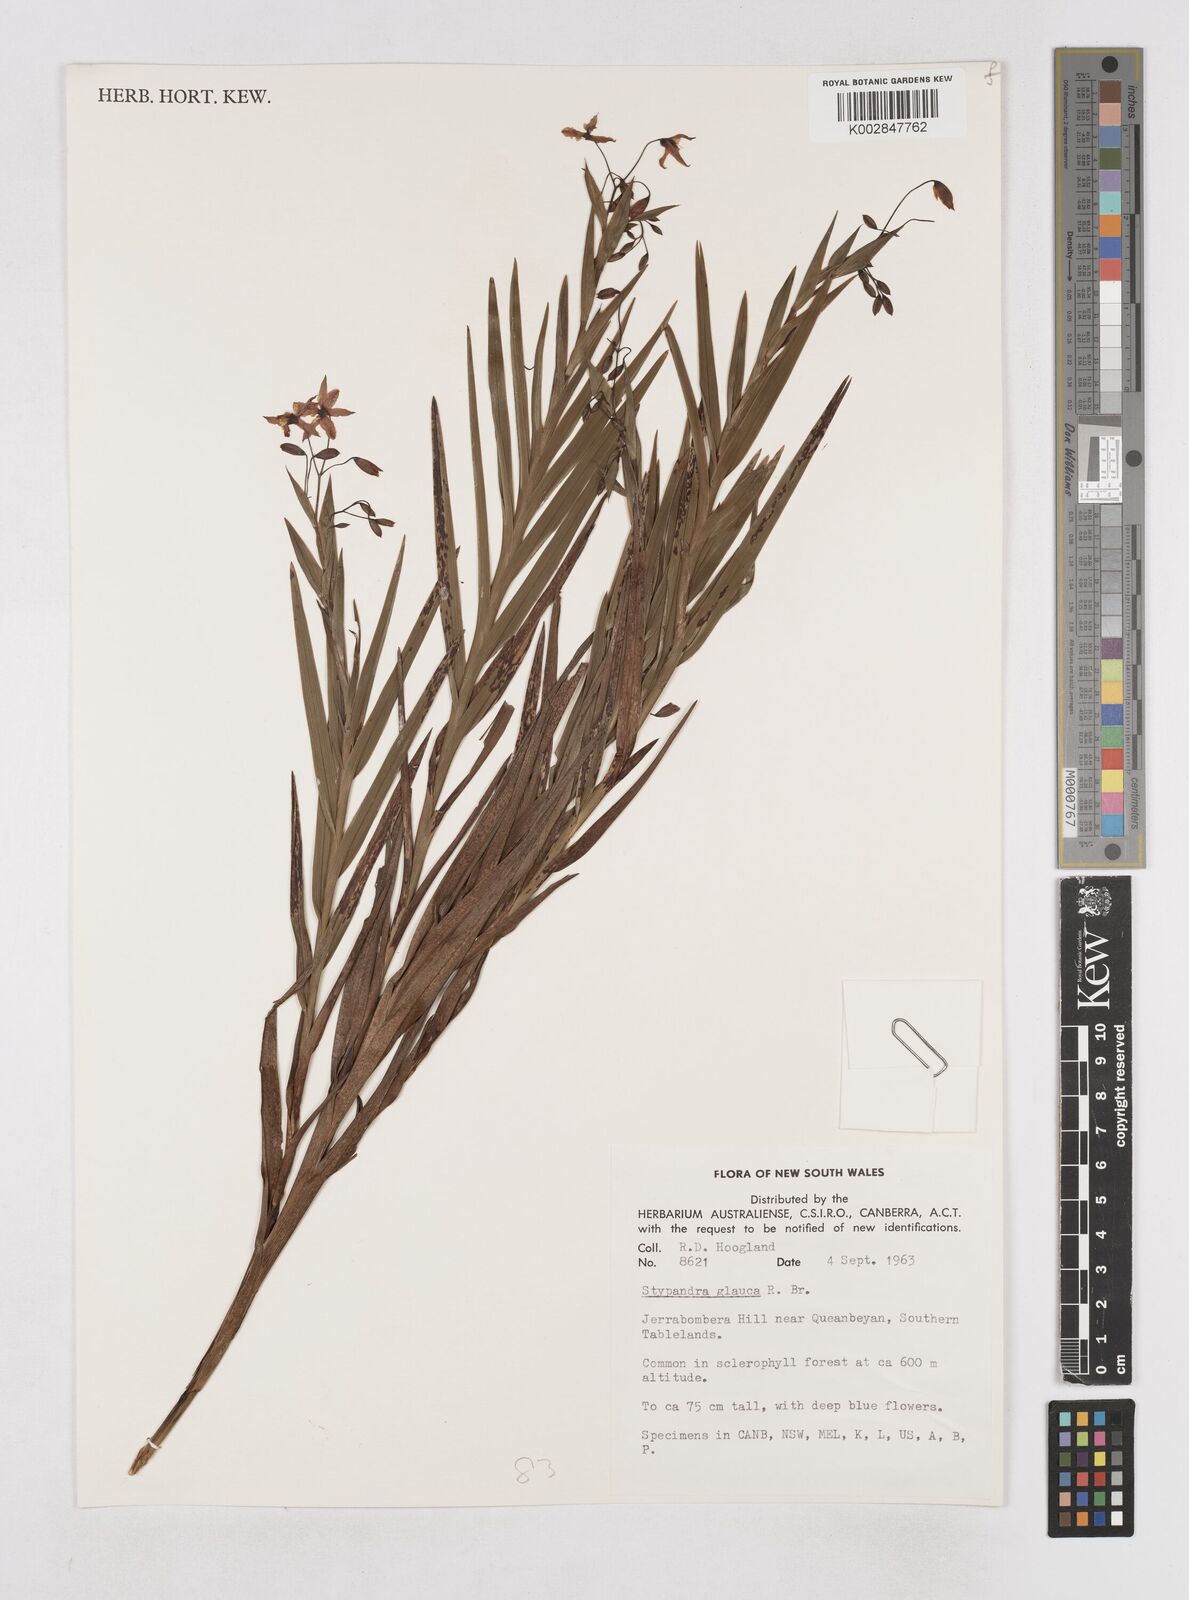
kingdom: Plantae
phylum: Tracheophyta
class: Liliopsida
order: Asparagales
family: Asphodelaceae
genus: Stypandra
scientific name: Stypandra glauca
